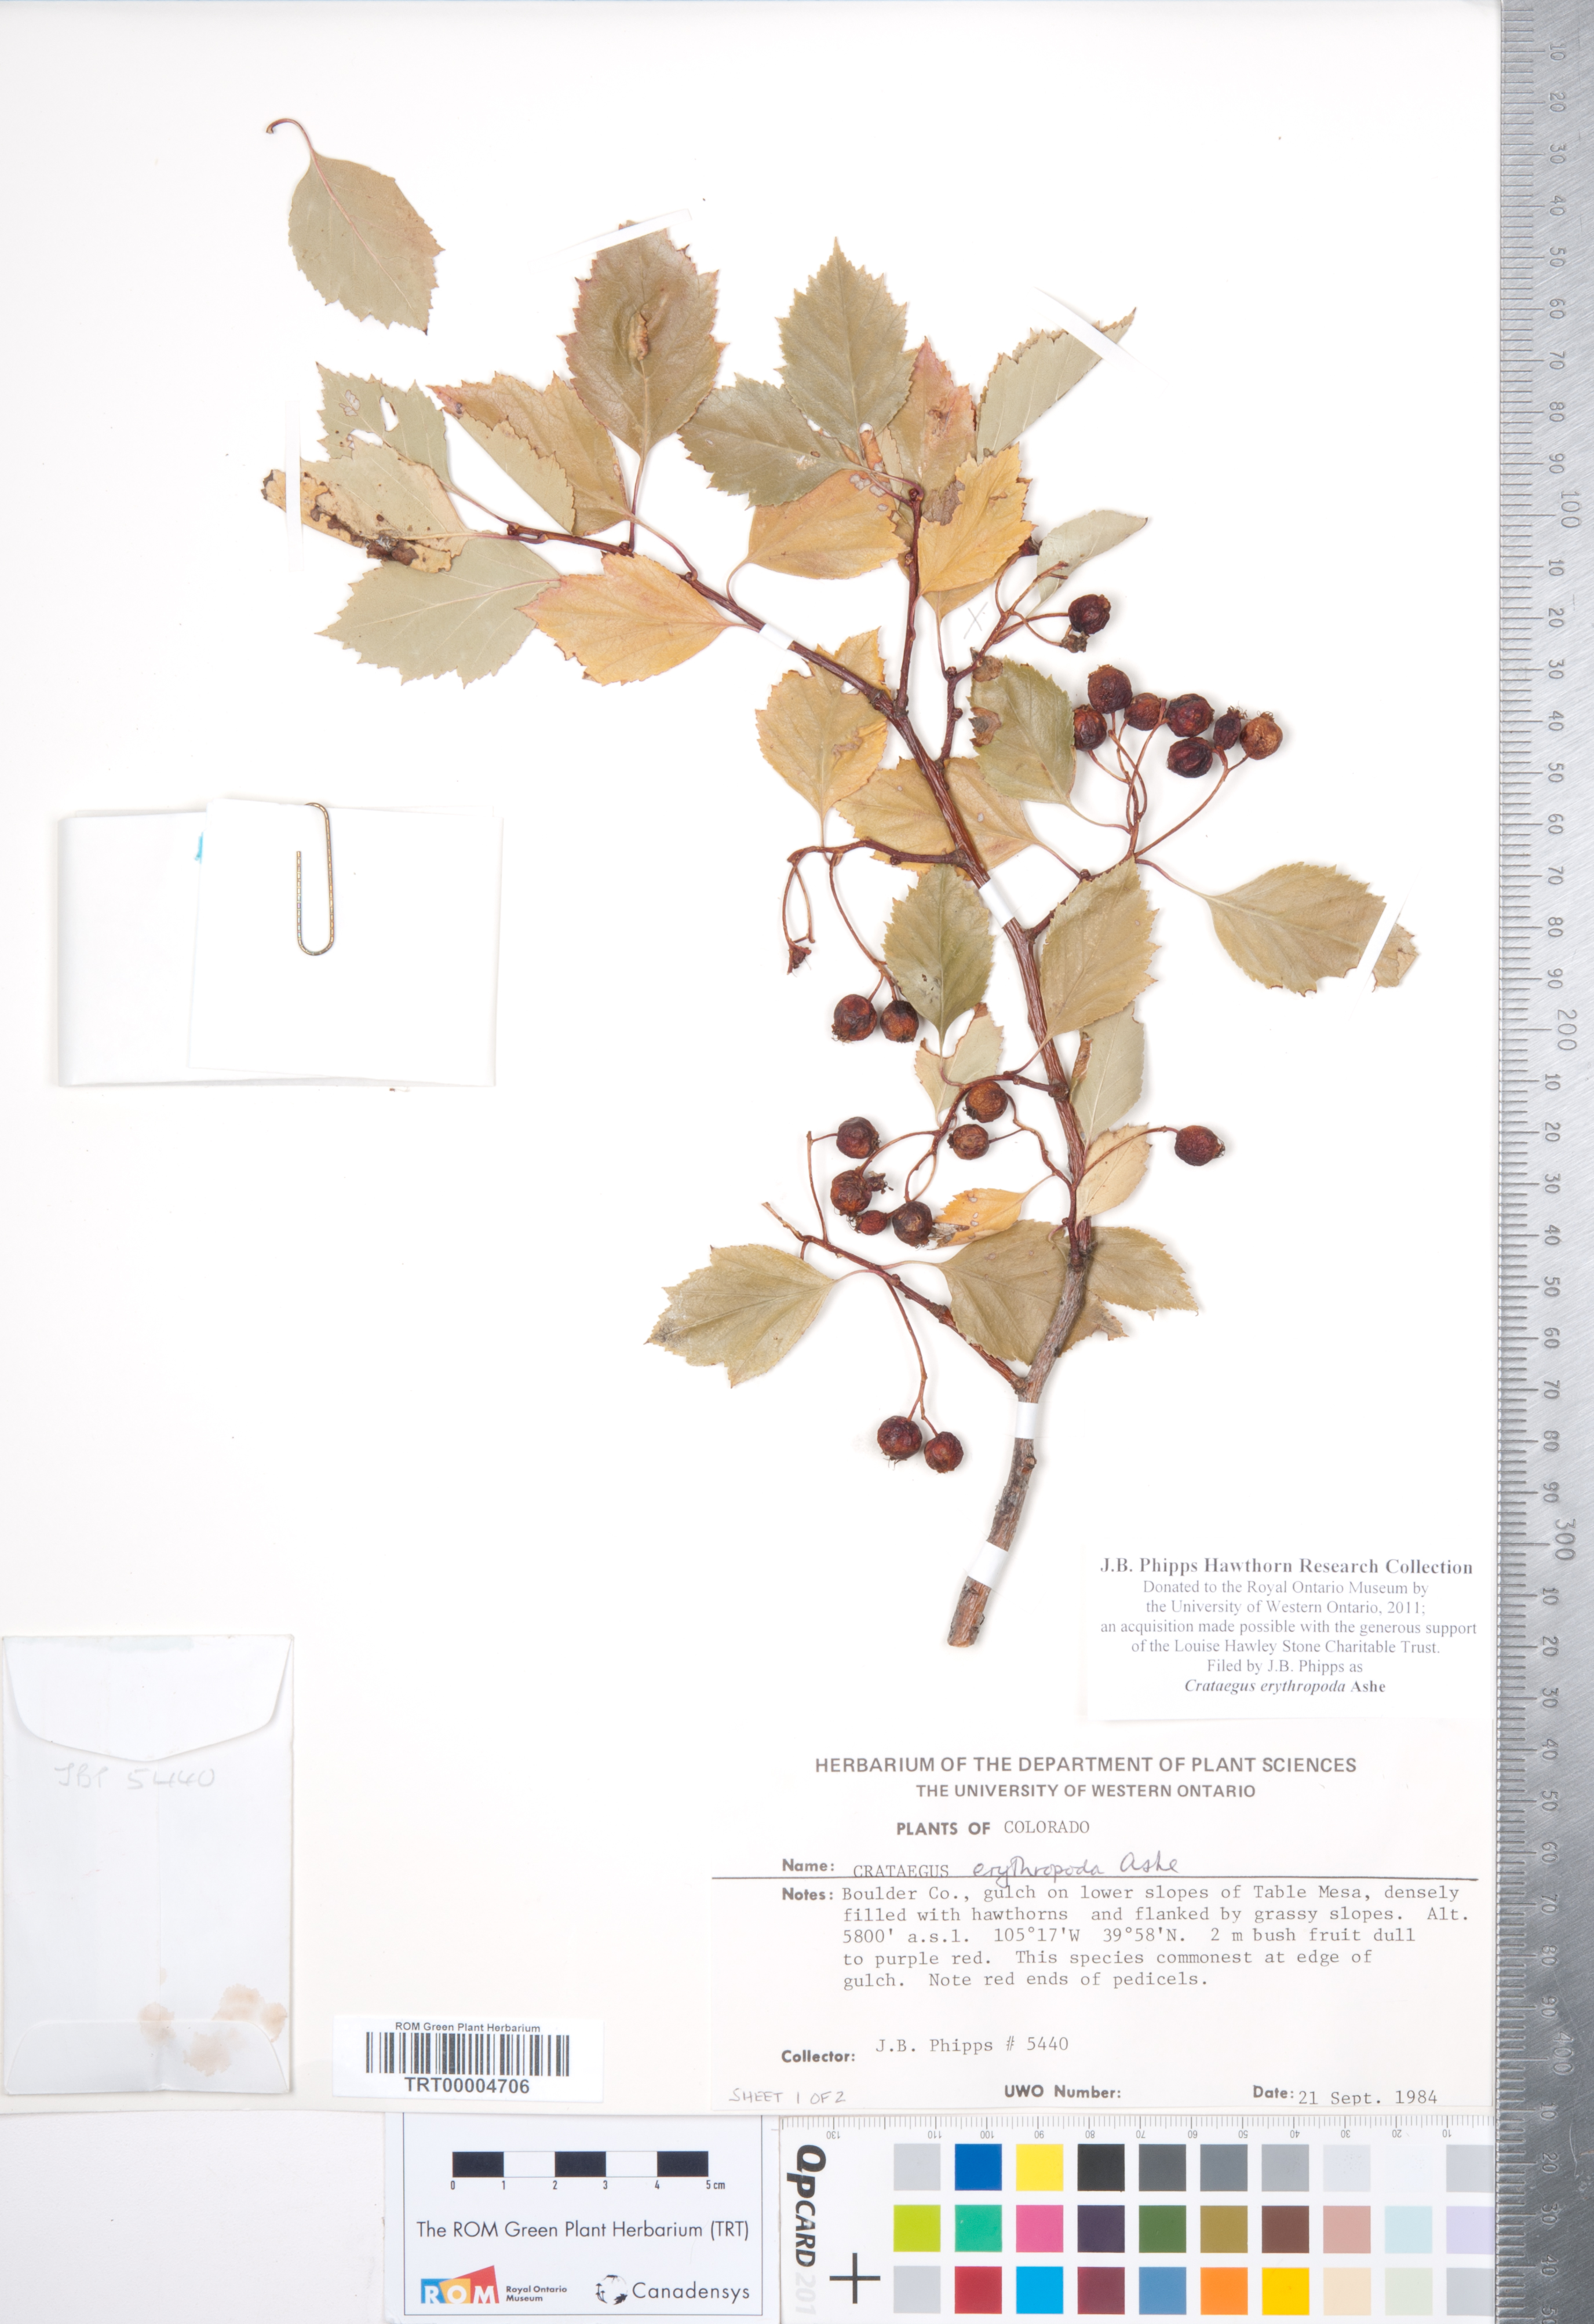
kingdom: Plantae
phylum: Tracheophyta
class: Magnoliopsida
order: Rosales
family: Rosaceae
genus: Crataegus
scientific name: Crataegus erythropoda
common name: Cerro hawthorn
